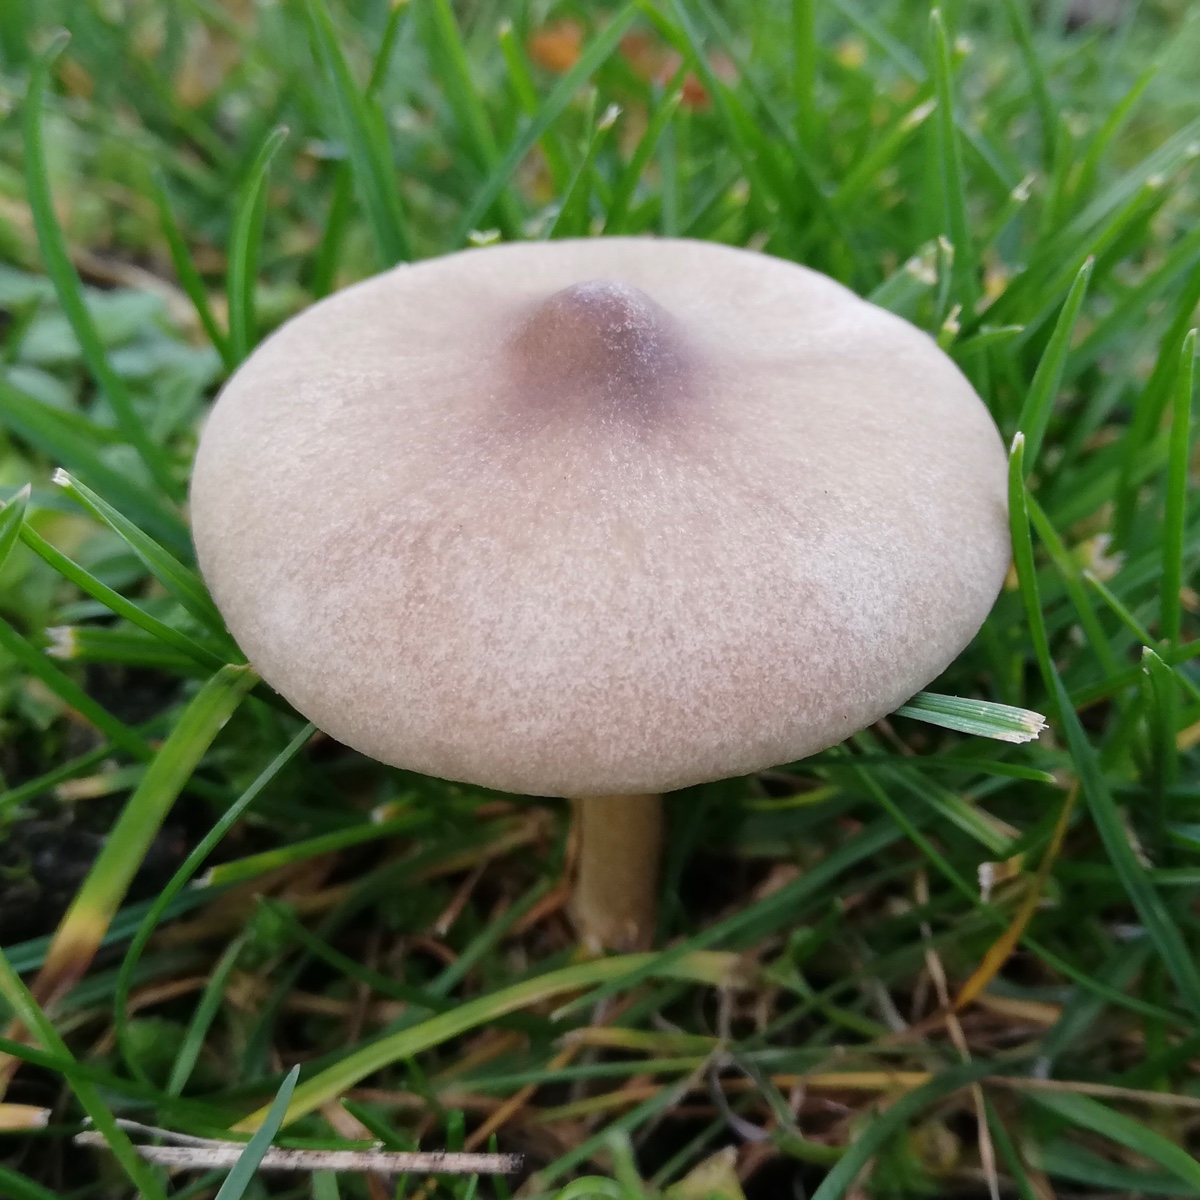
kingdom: Fungi
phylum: Basidiomycota
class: Agaricomycetes
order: Agaricales
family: Tricholomataceae
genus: Melanoleuca
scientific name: Melanoleuca
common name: munkehat
